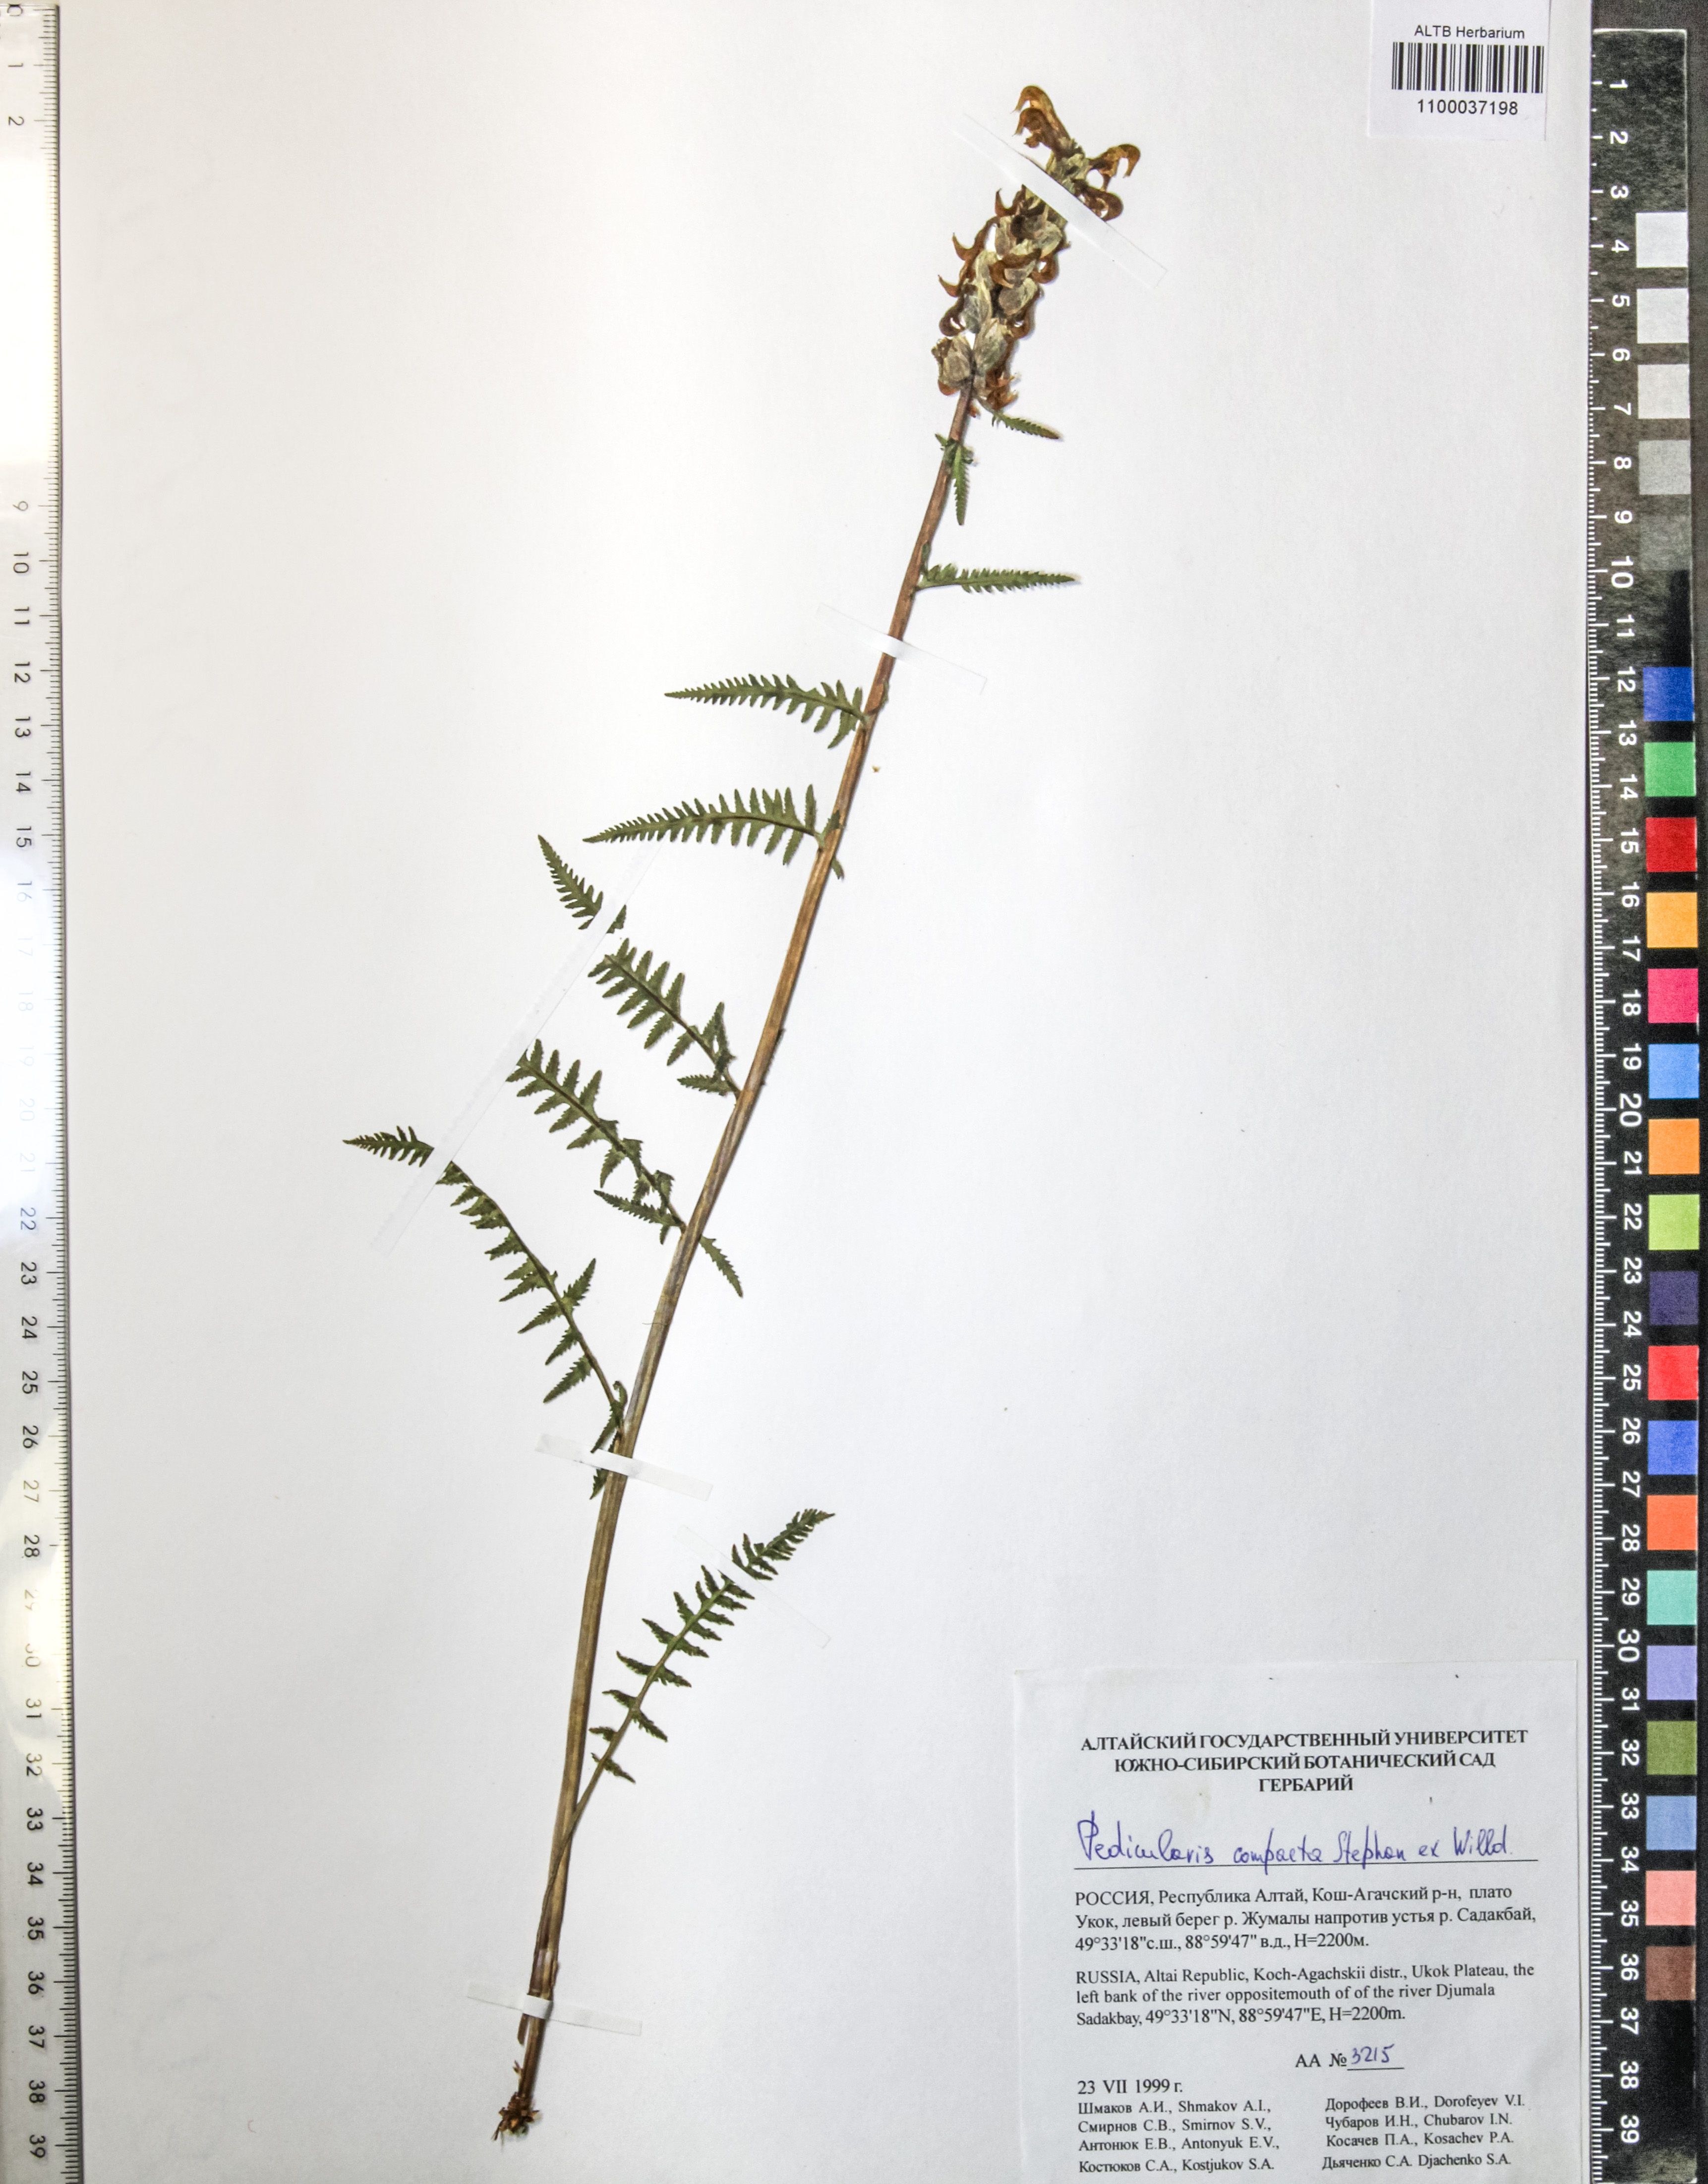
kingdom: Plantae
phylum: Tracheophyta
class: Magnoliopsida
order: Lamiales
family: Orobanchaceae
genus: Pedicularis
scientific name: Pedicularis compacta
